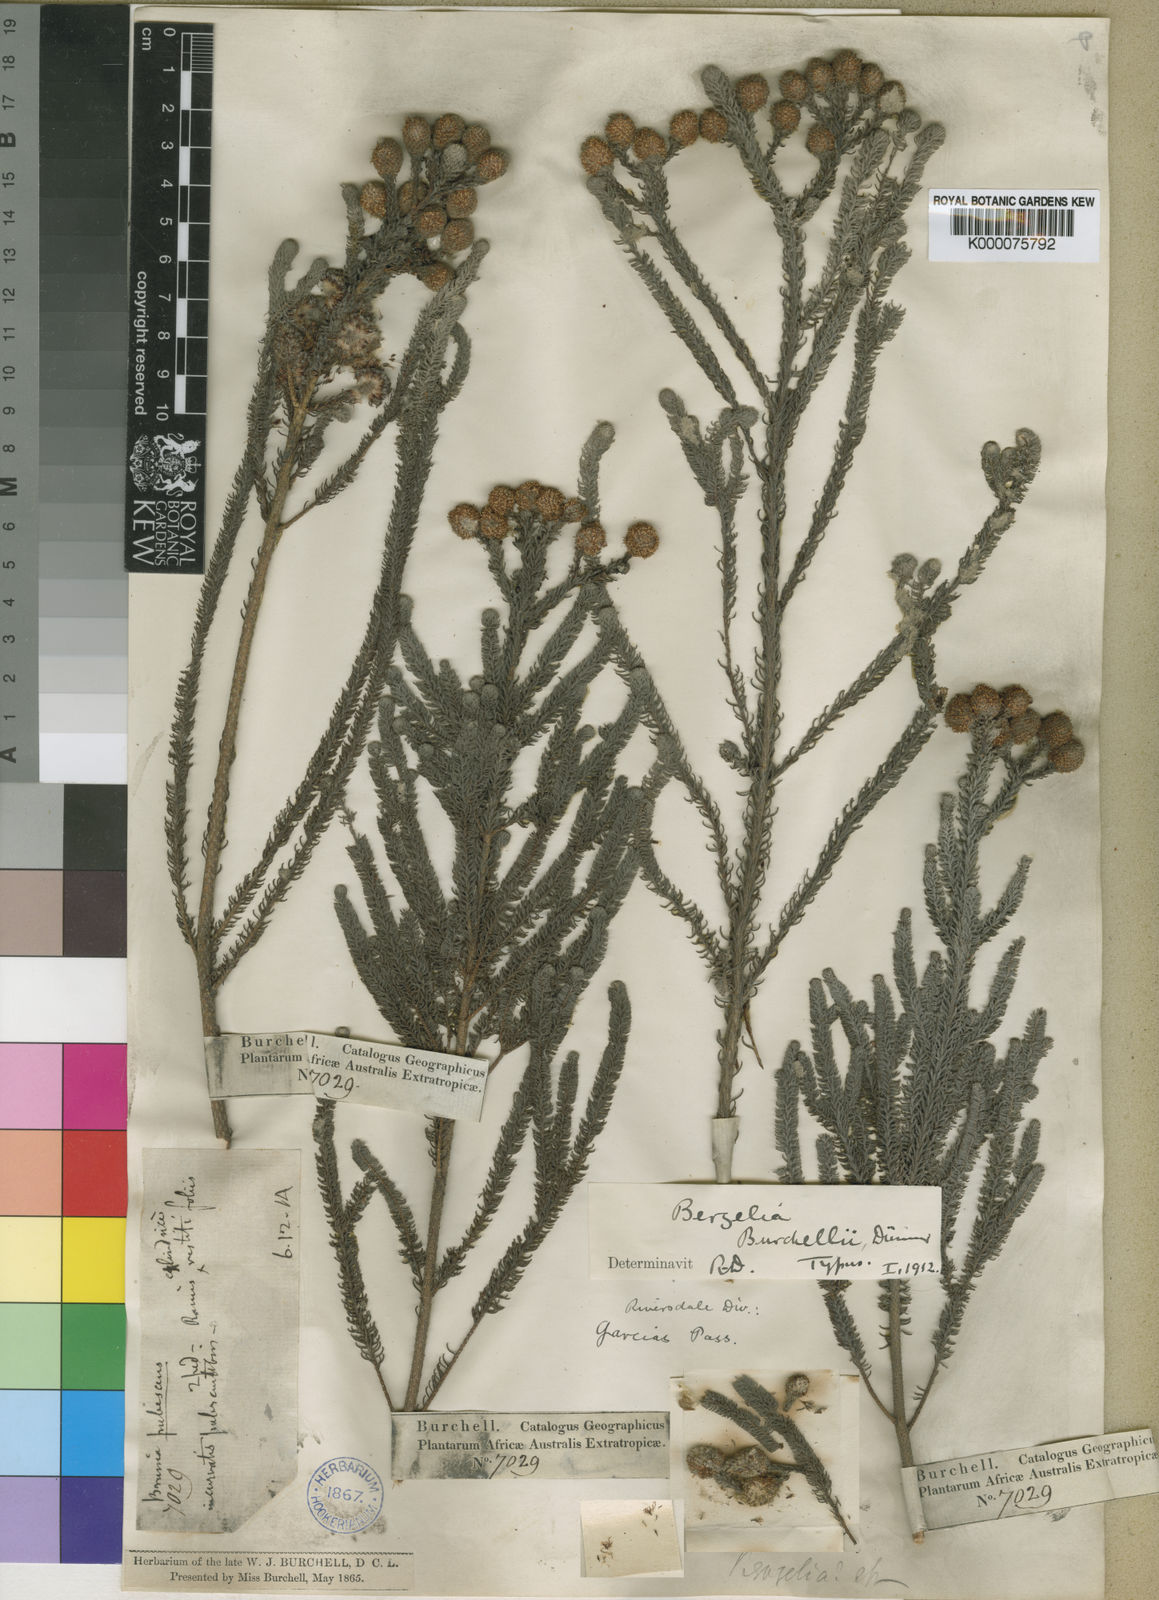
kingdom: Plantae
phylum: Tracheophyta
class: Magnoliopsida
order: Bruniales
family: Bruniaceae
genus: Berzelia
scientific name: Berzelia burchellii
